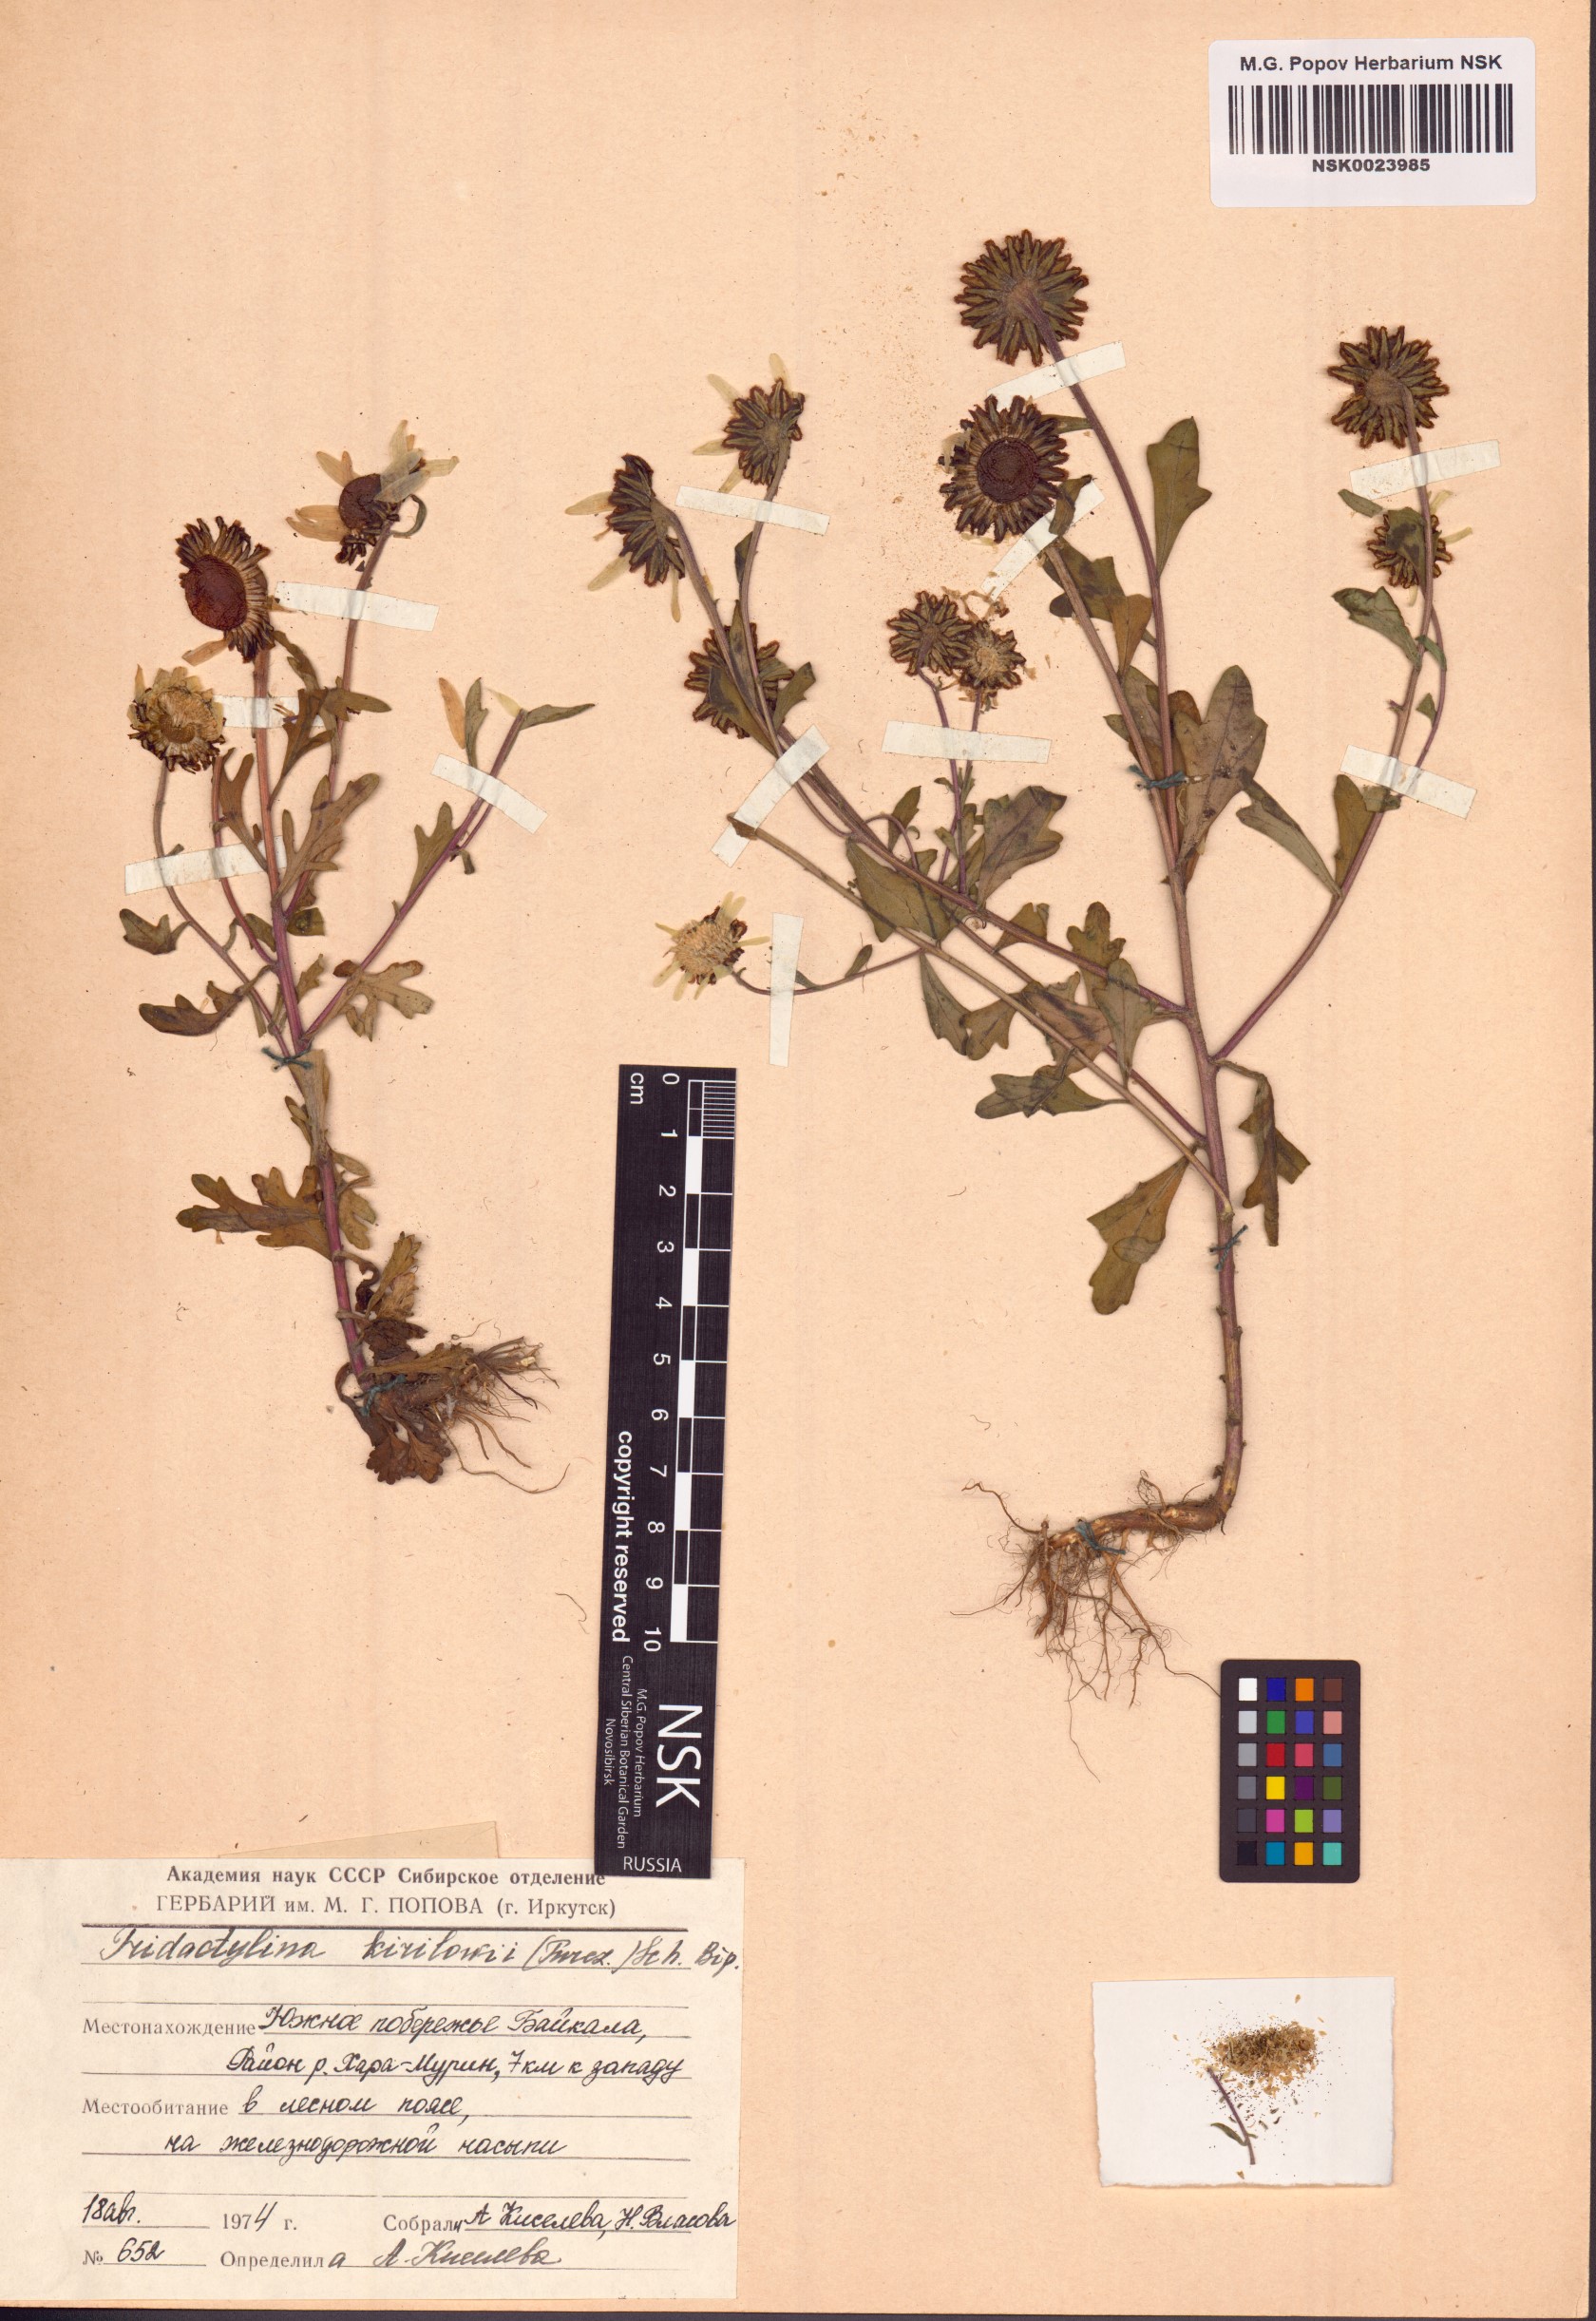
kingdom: Plantae
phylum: Tracheophyta
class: Magnoliopsida
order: Asterales
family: Asteraceae
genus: Tridactylina
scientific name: Tridactylina kirilowii
